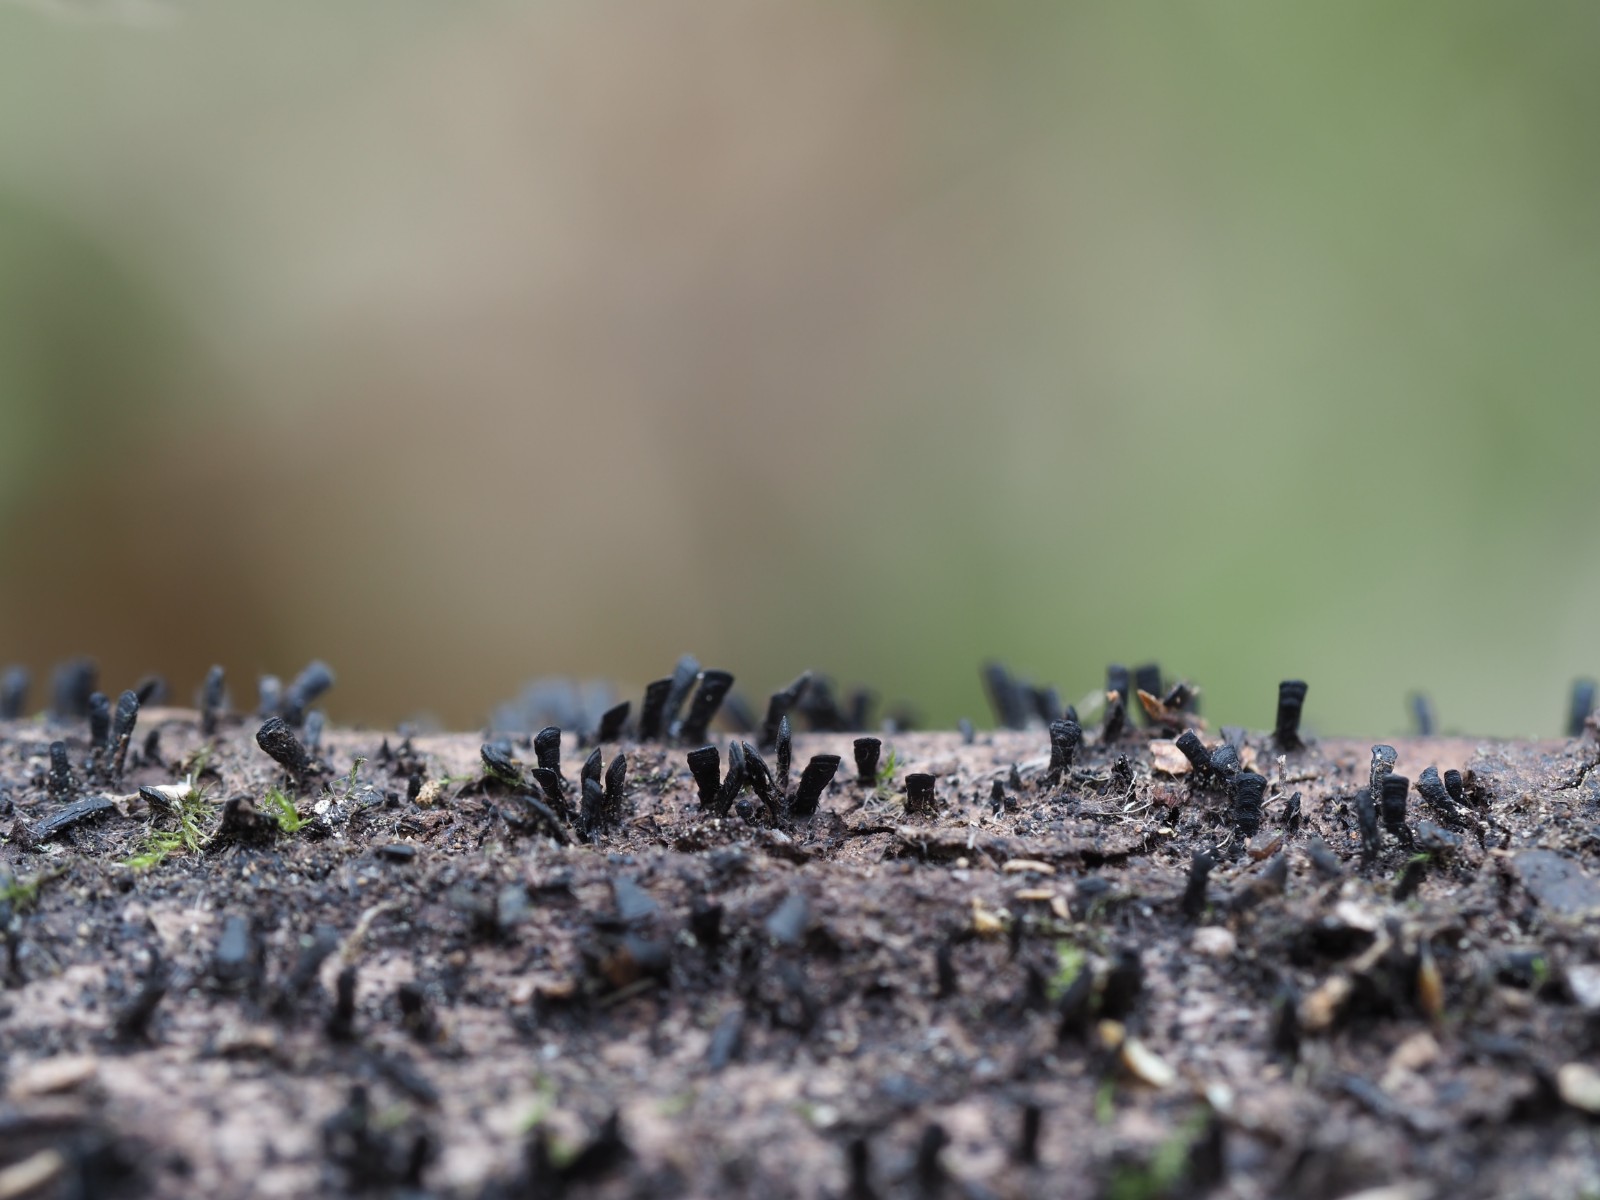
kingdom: Fungi
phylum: Ascomycota
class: Eurotiomycetes
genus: Glyphium
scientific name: Glyphium elatum
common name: kuløkse
